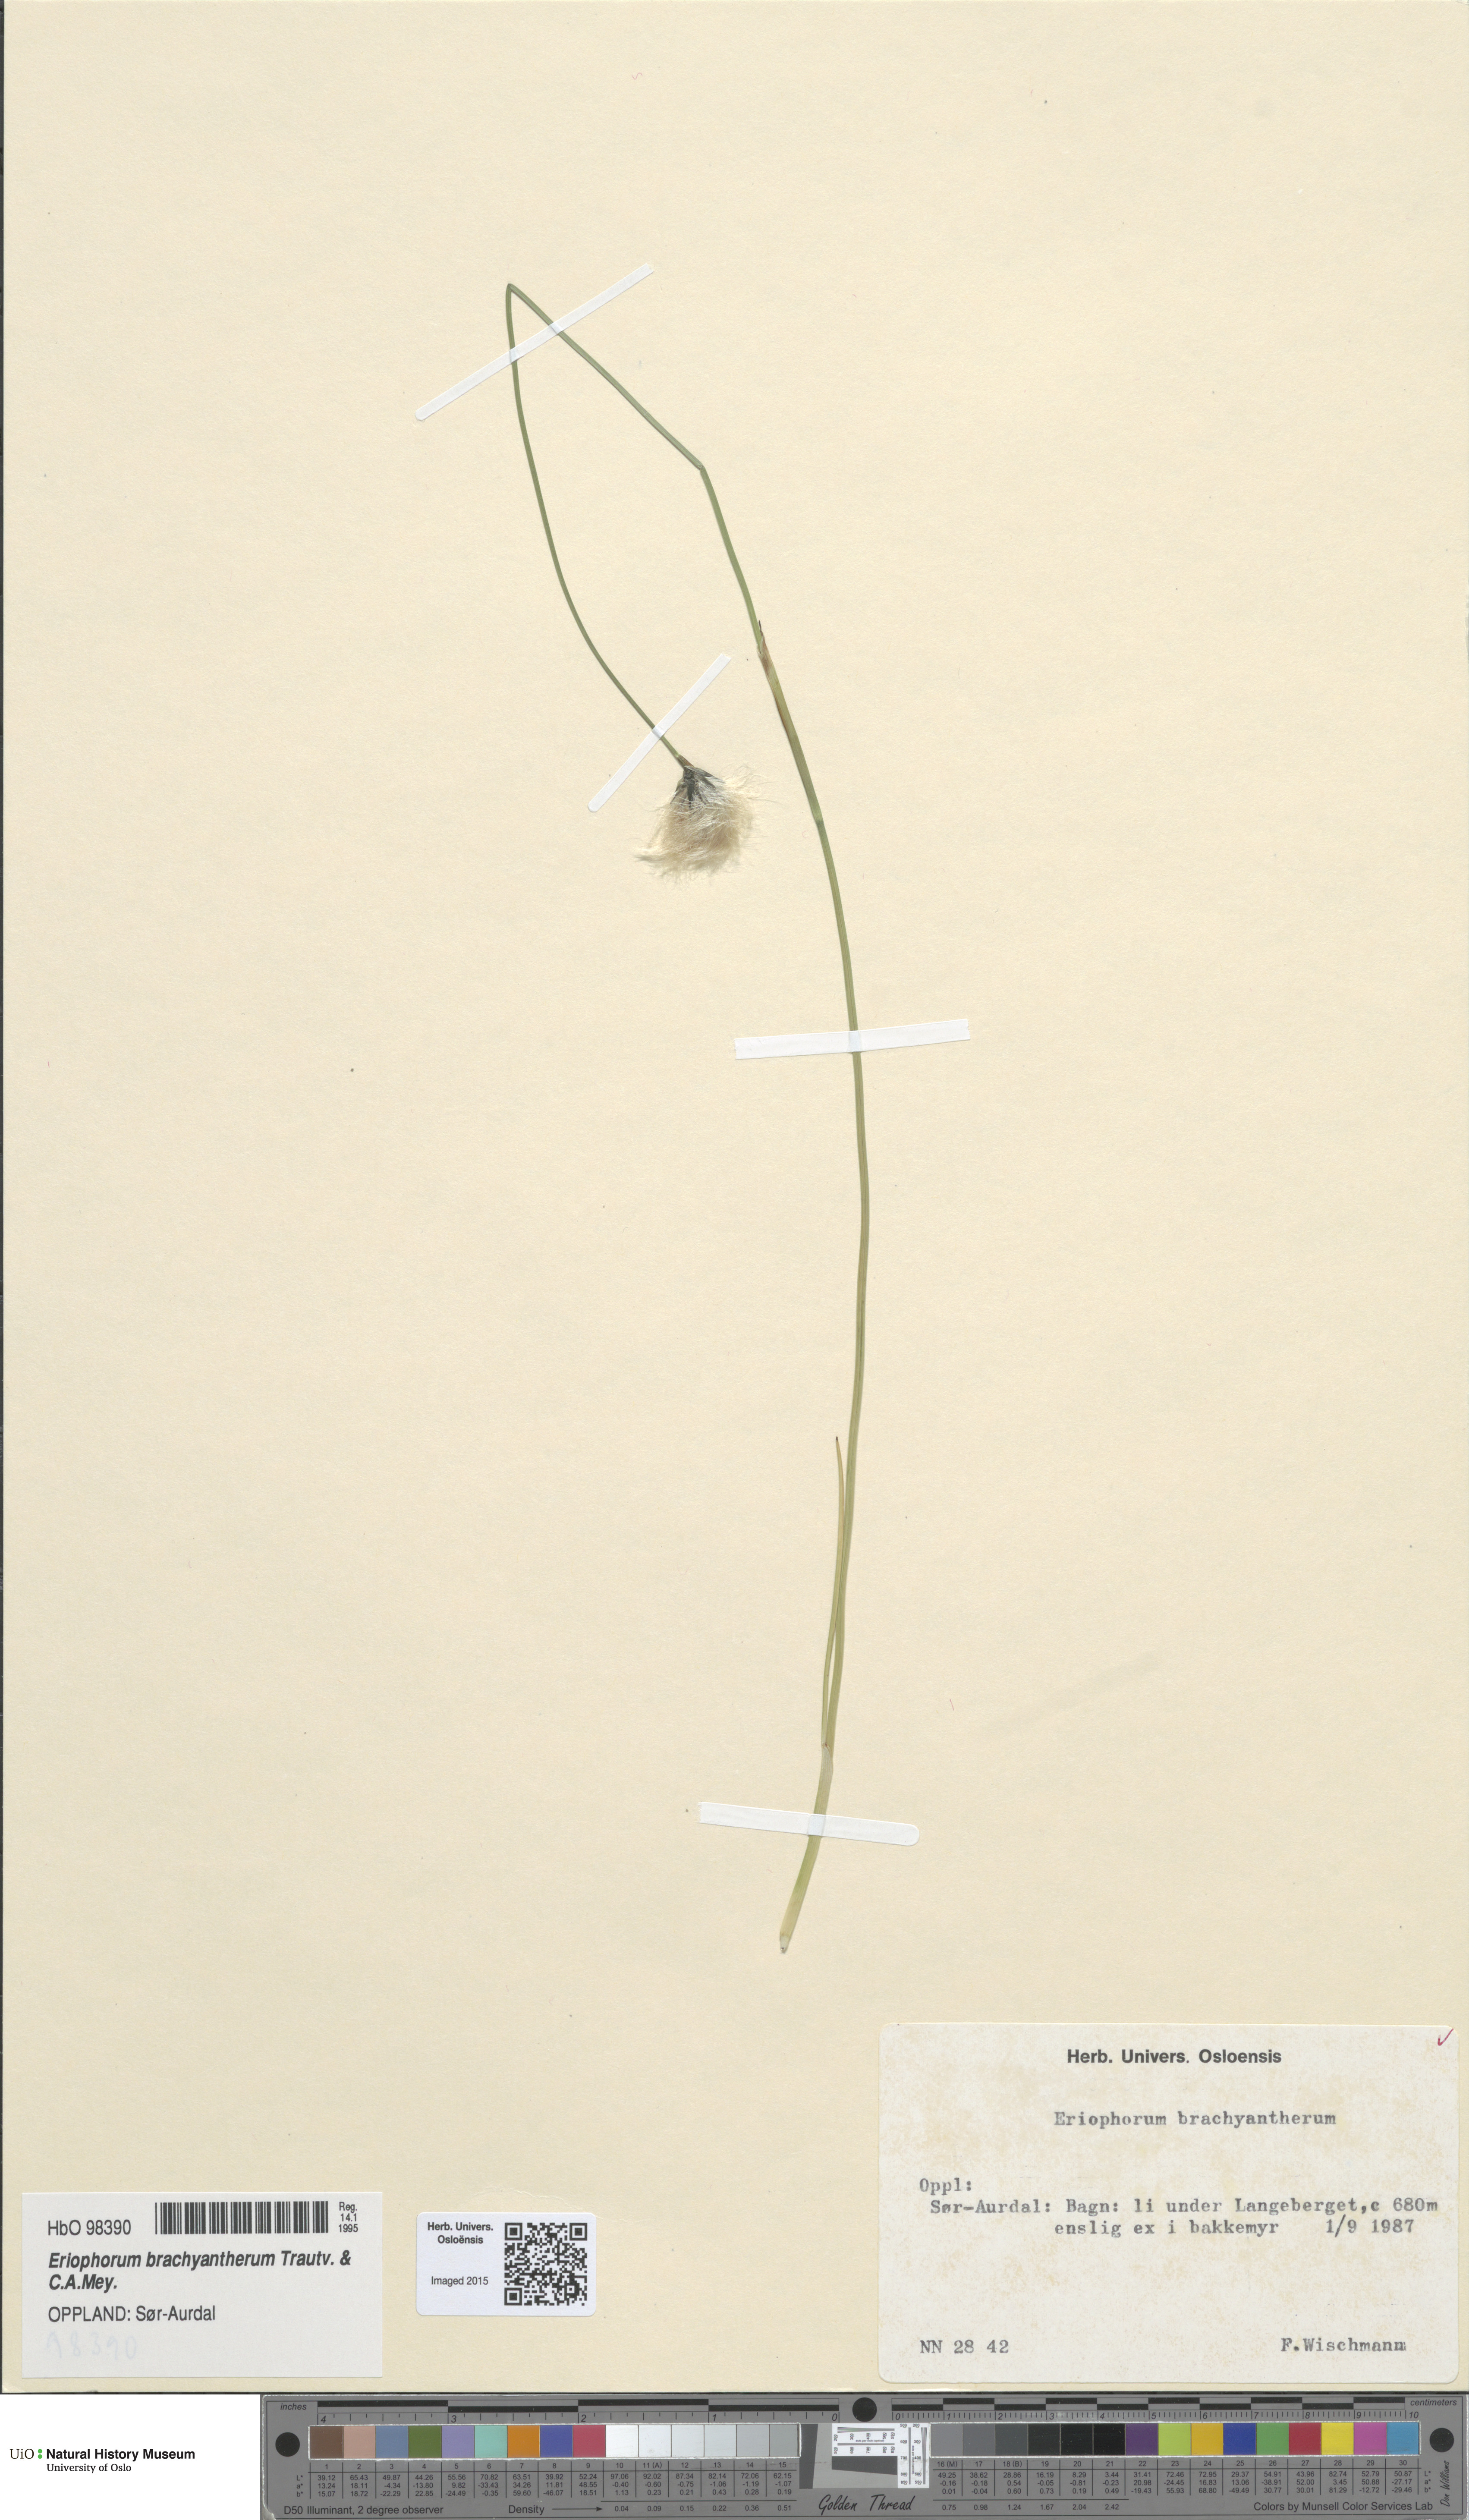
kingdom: Plantae
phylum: Tracheophyta
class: Liliopsida
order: Poales
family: Cyperaceae
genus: Eriophorum
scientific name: Eriophorum brachyantherum
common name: Closed-sheathed cottongrass
